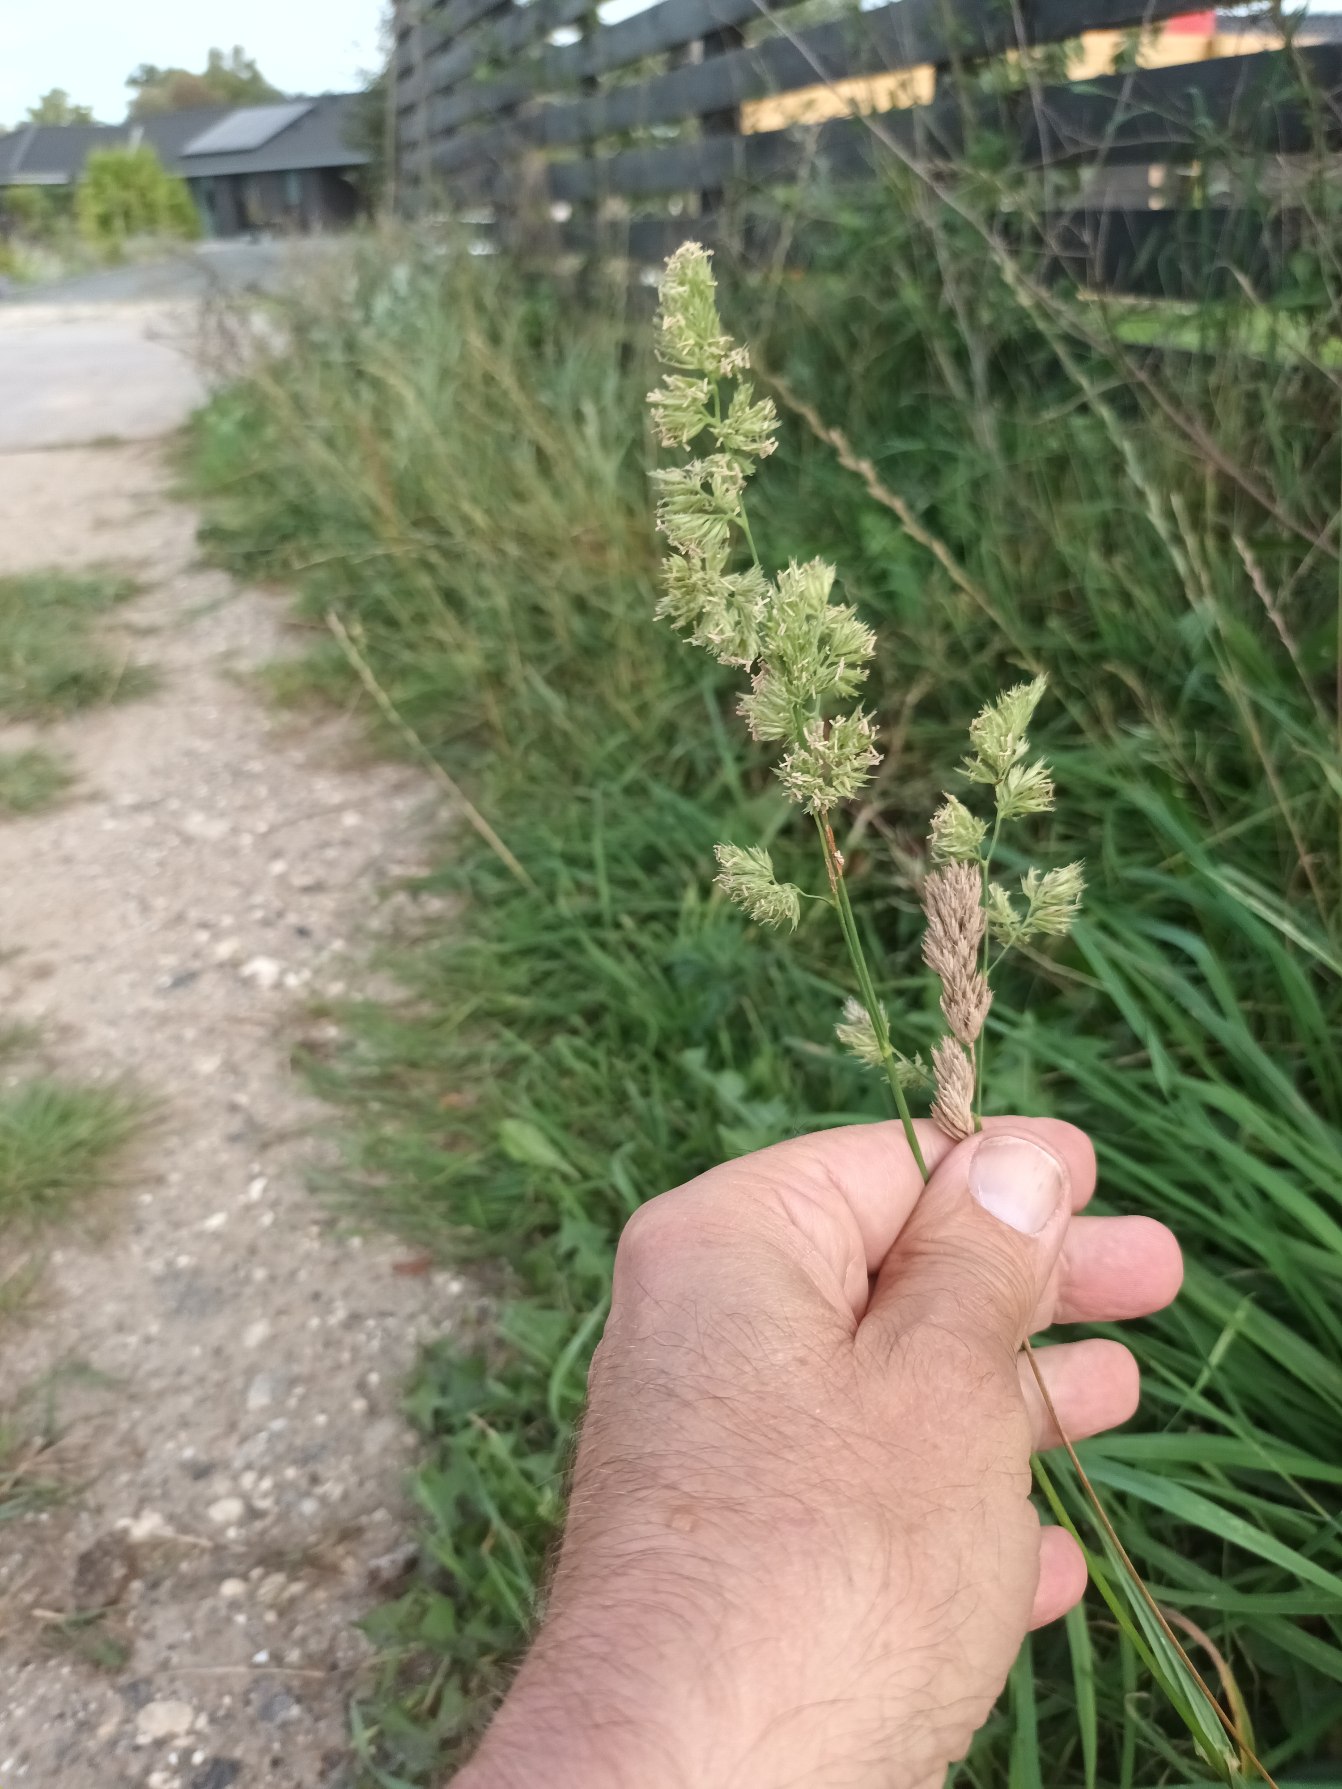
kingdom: Plantae
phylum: Tracheophyta
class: Liliopsida
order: Poales
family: Poaceae
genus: Dactylis
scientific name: Dactylis glomerata
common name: Almindelig hundegræs
